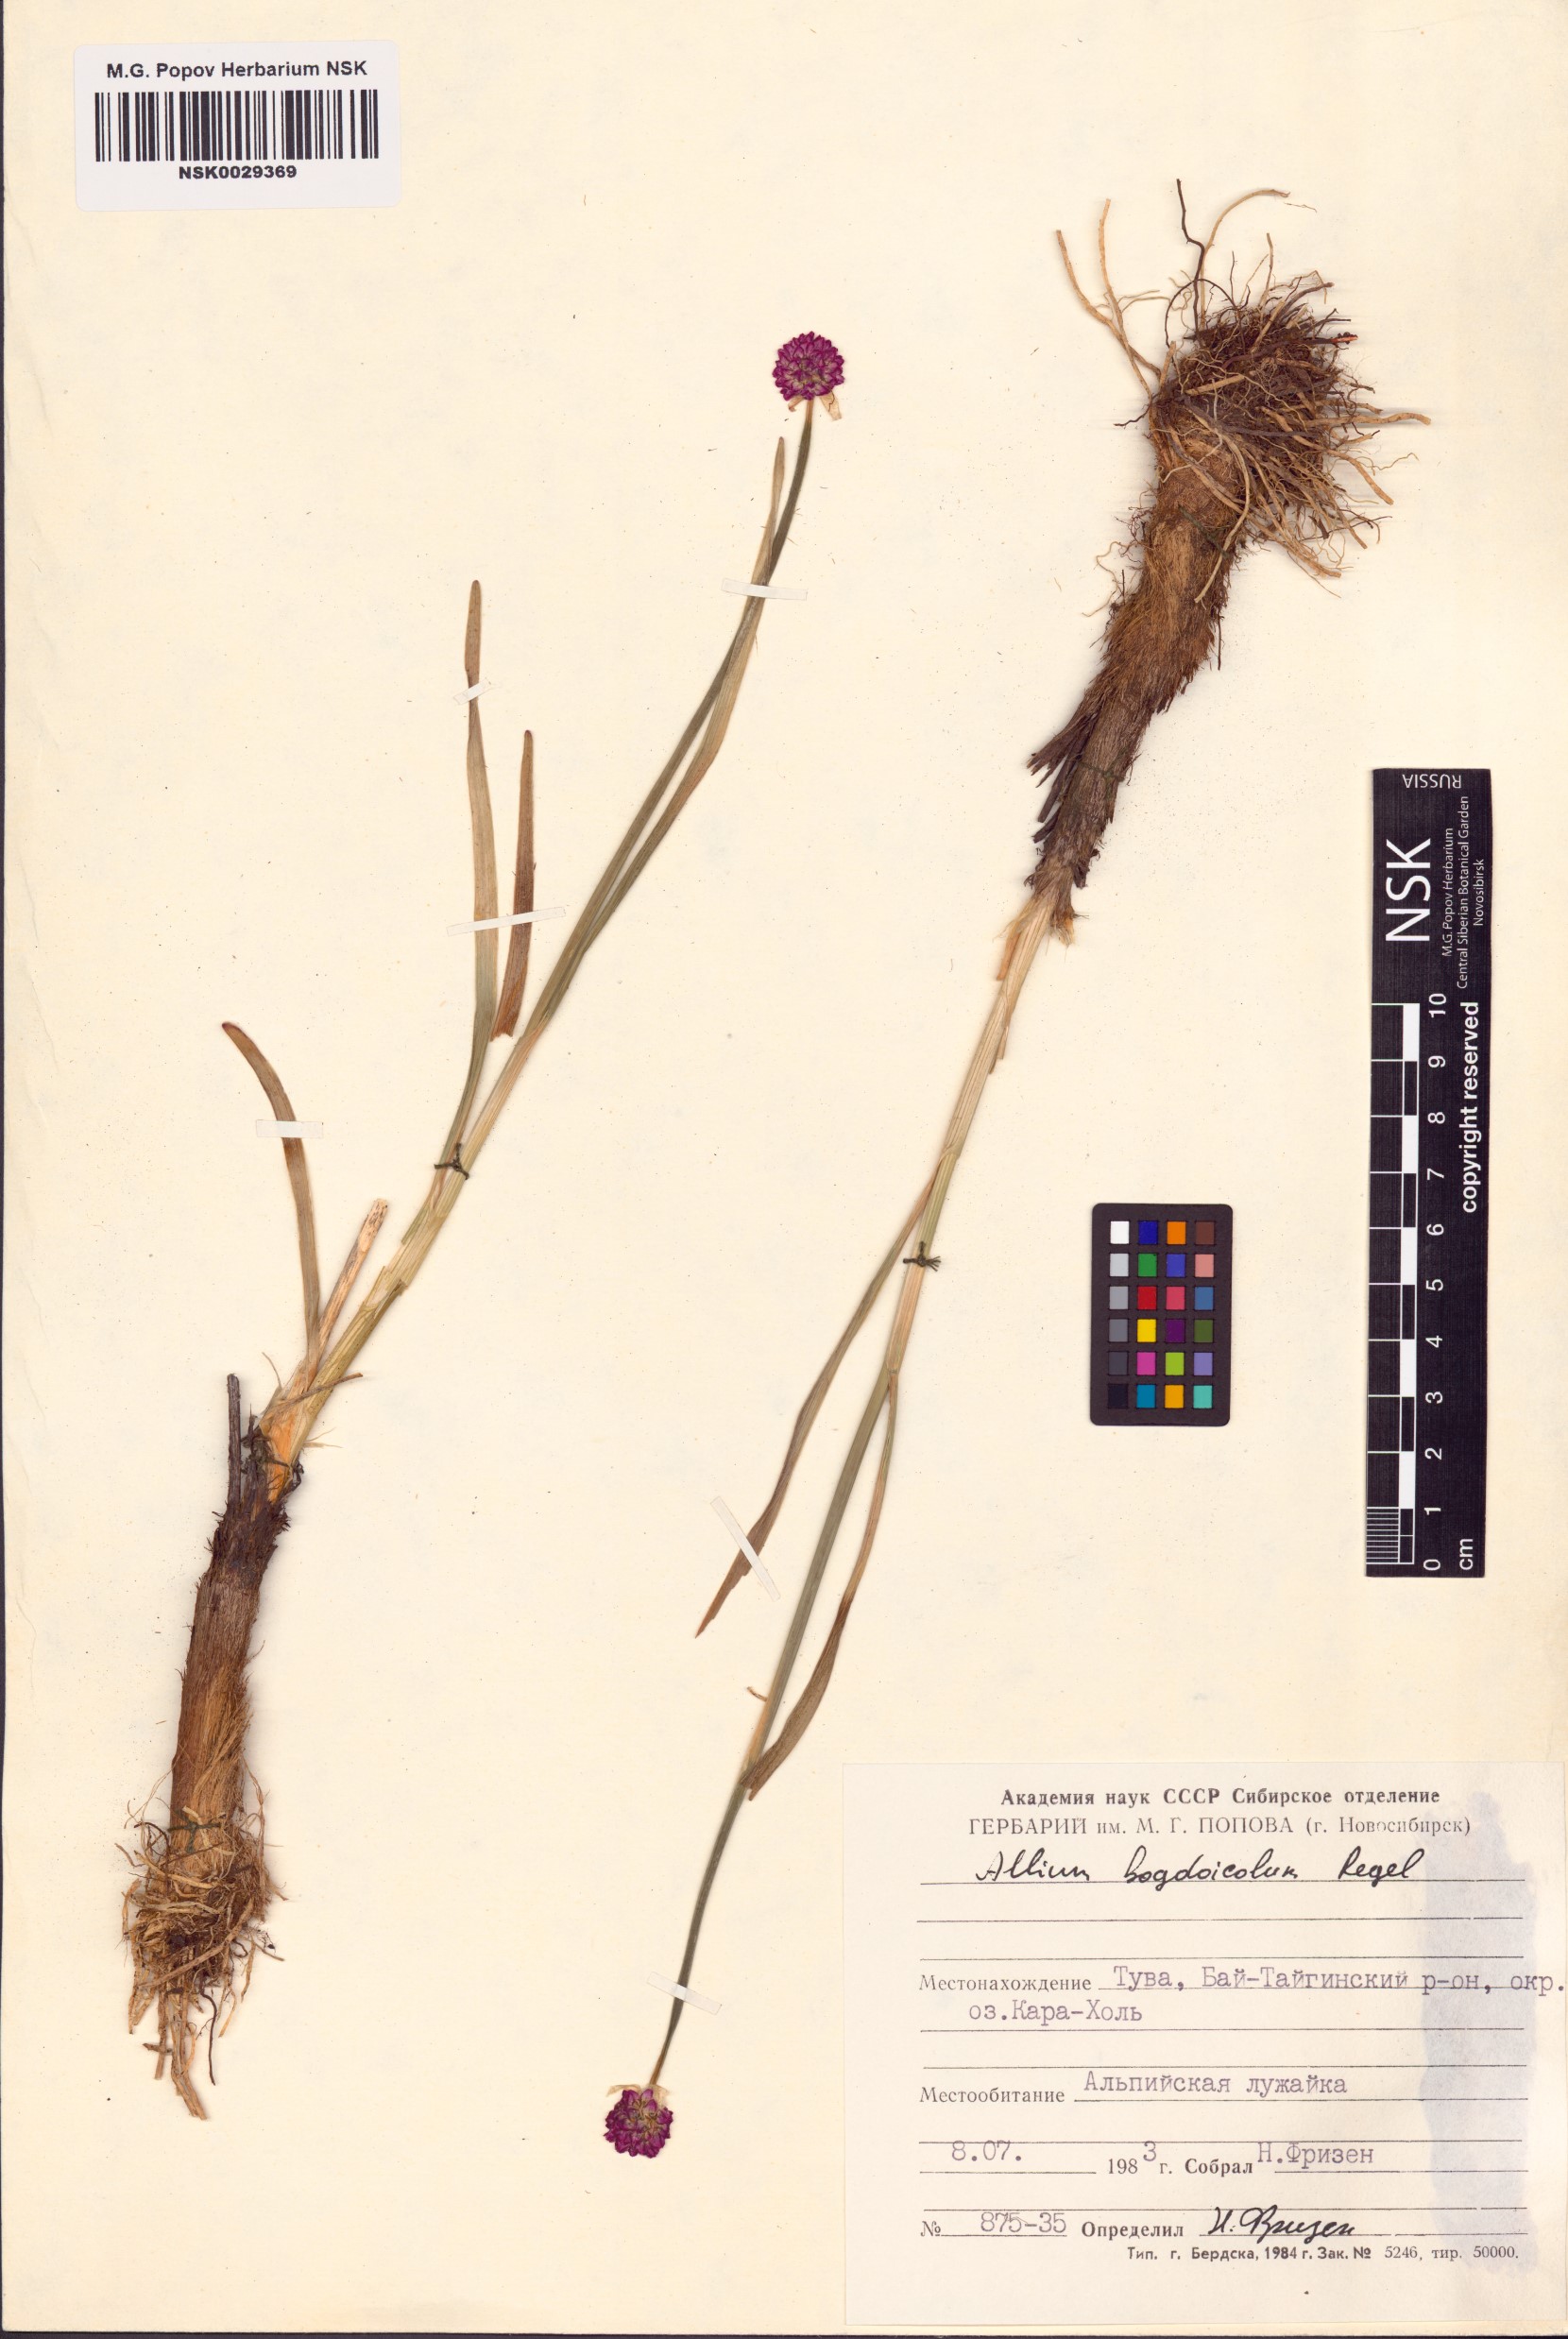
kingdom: Plantae
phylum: Tracheophyta
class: Liliopsida
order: Asparagales
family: Amaryllidaceae
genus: Allium
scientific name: Allium schrenkii
